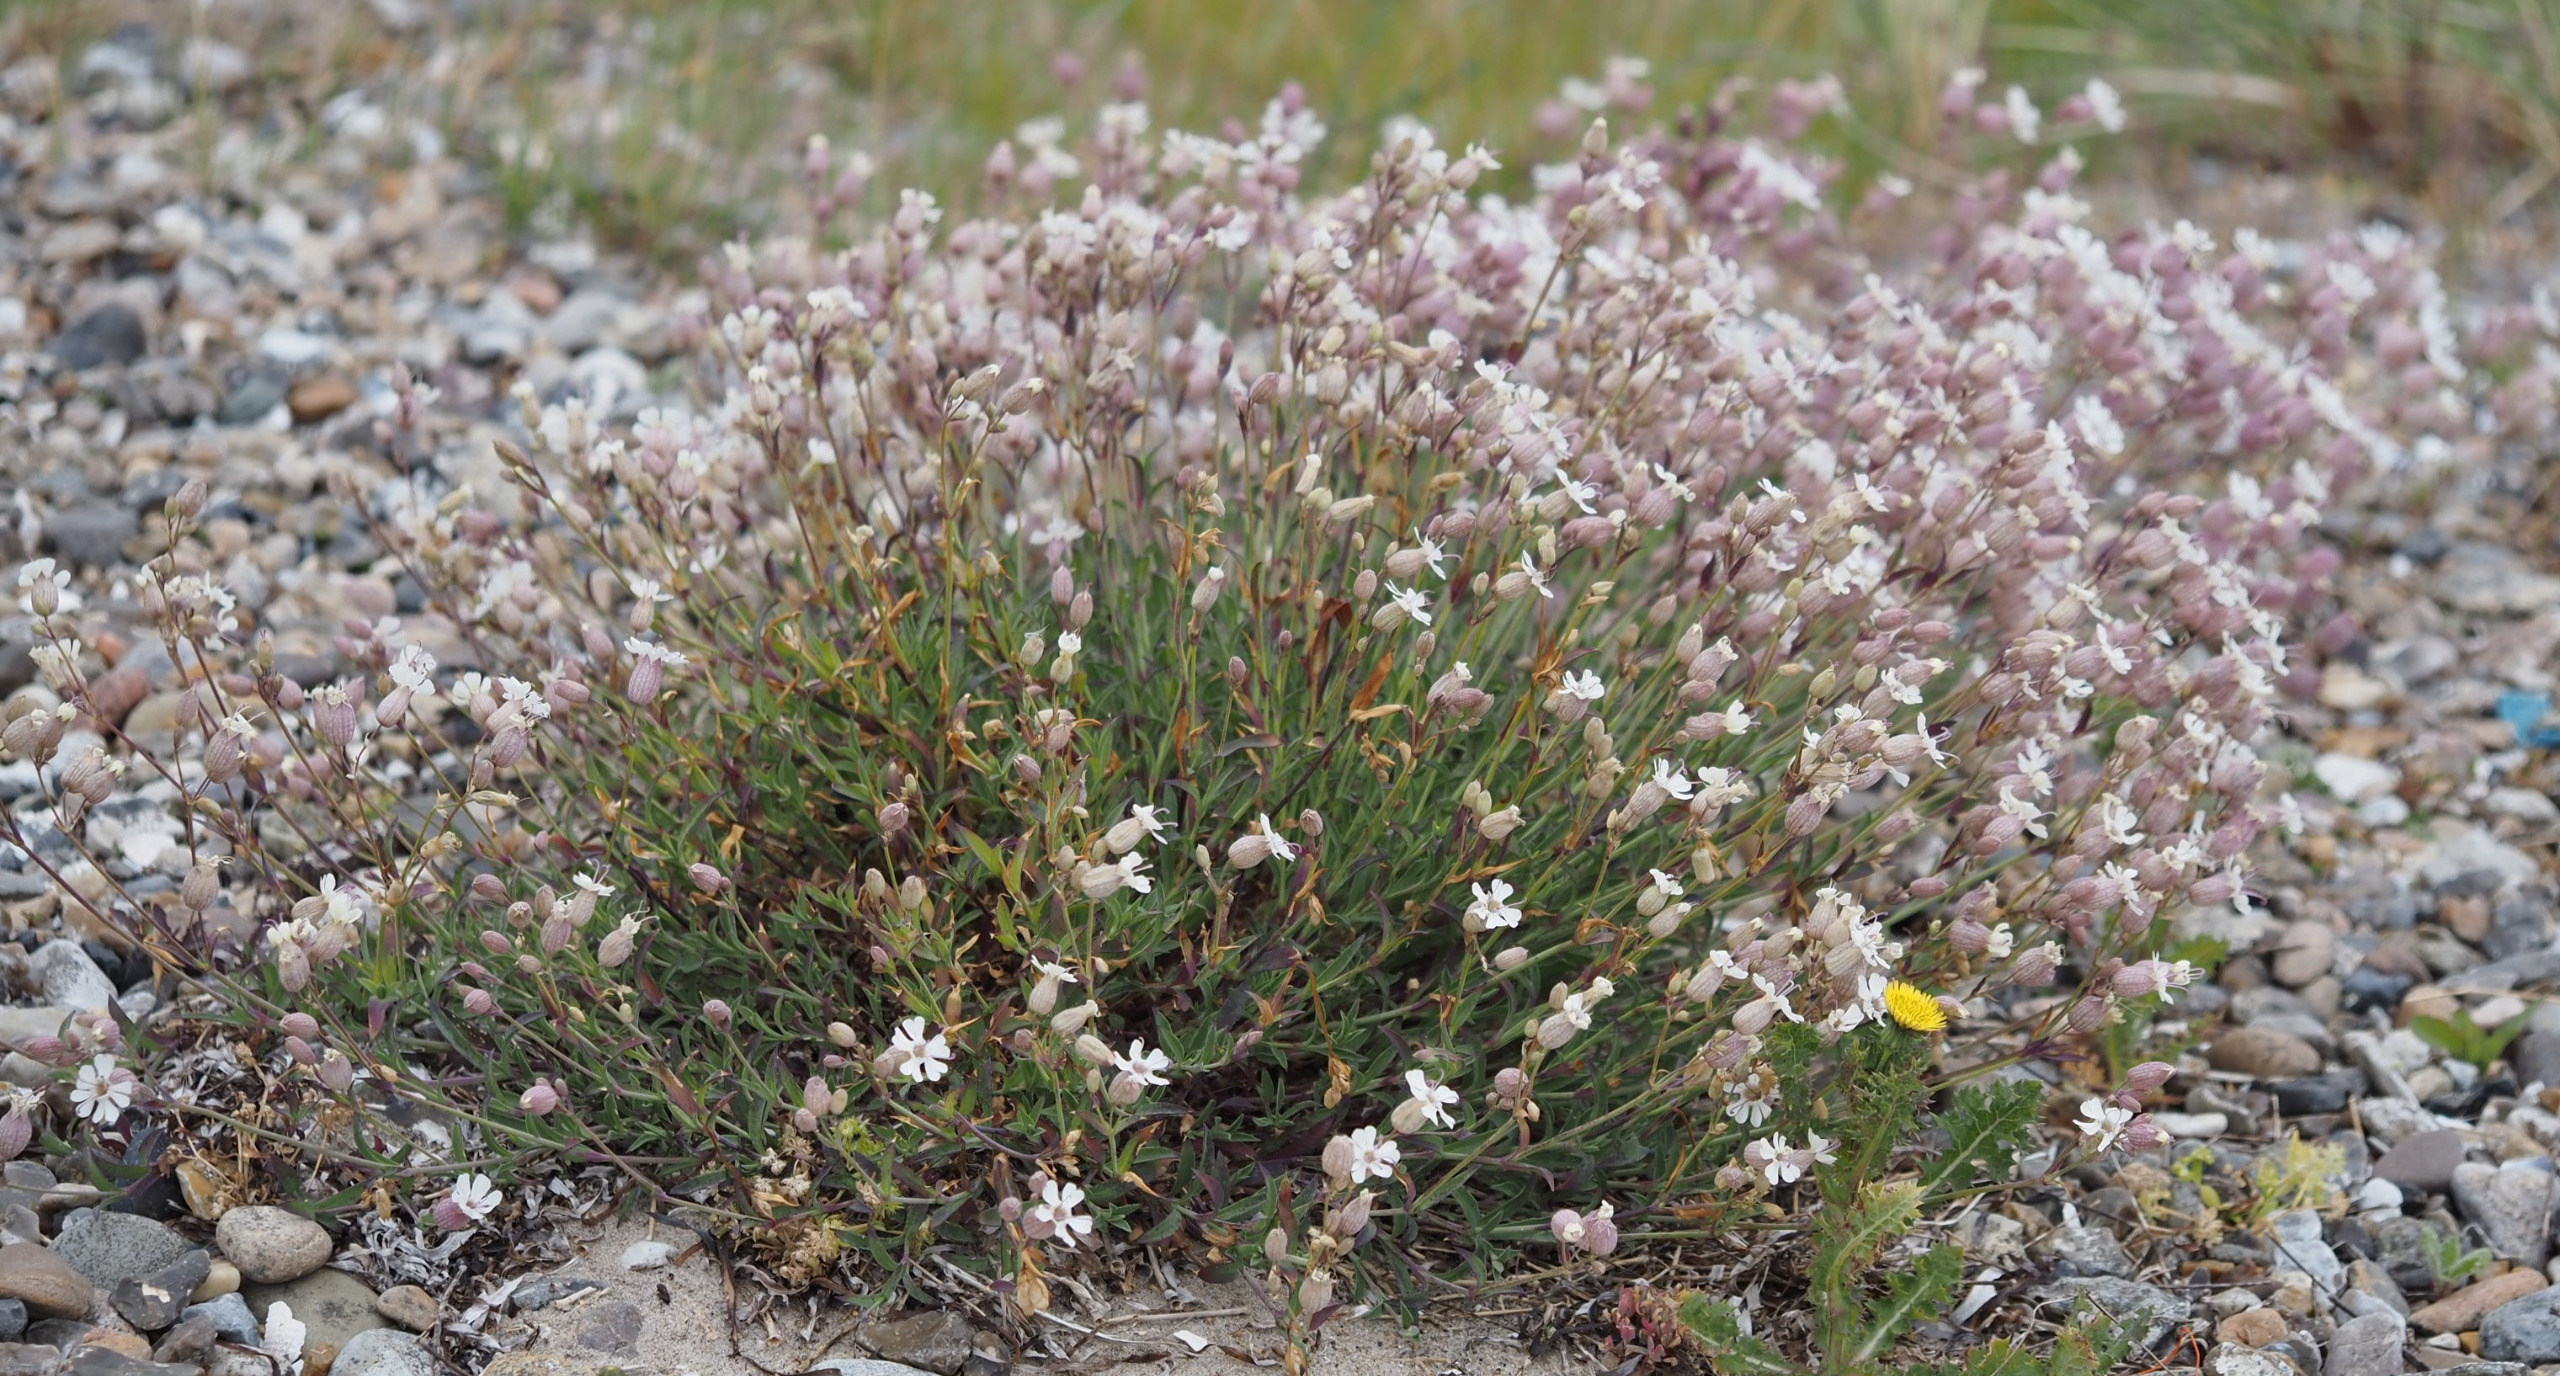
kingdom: Plantae
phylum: Tracheophyta
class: Magnoliopsida
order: Caryophyllales
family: Caryophyllaceae
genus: Silene
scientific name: Silene uniflora
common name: Strand-limurt
